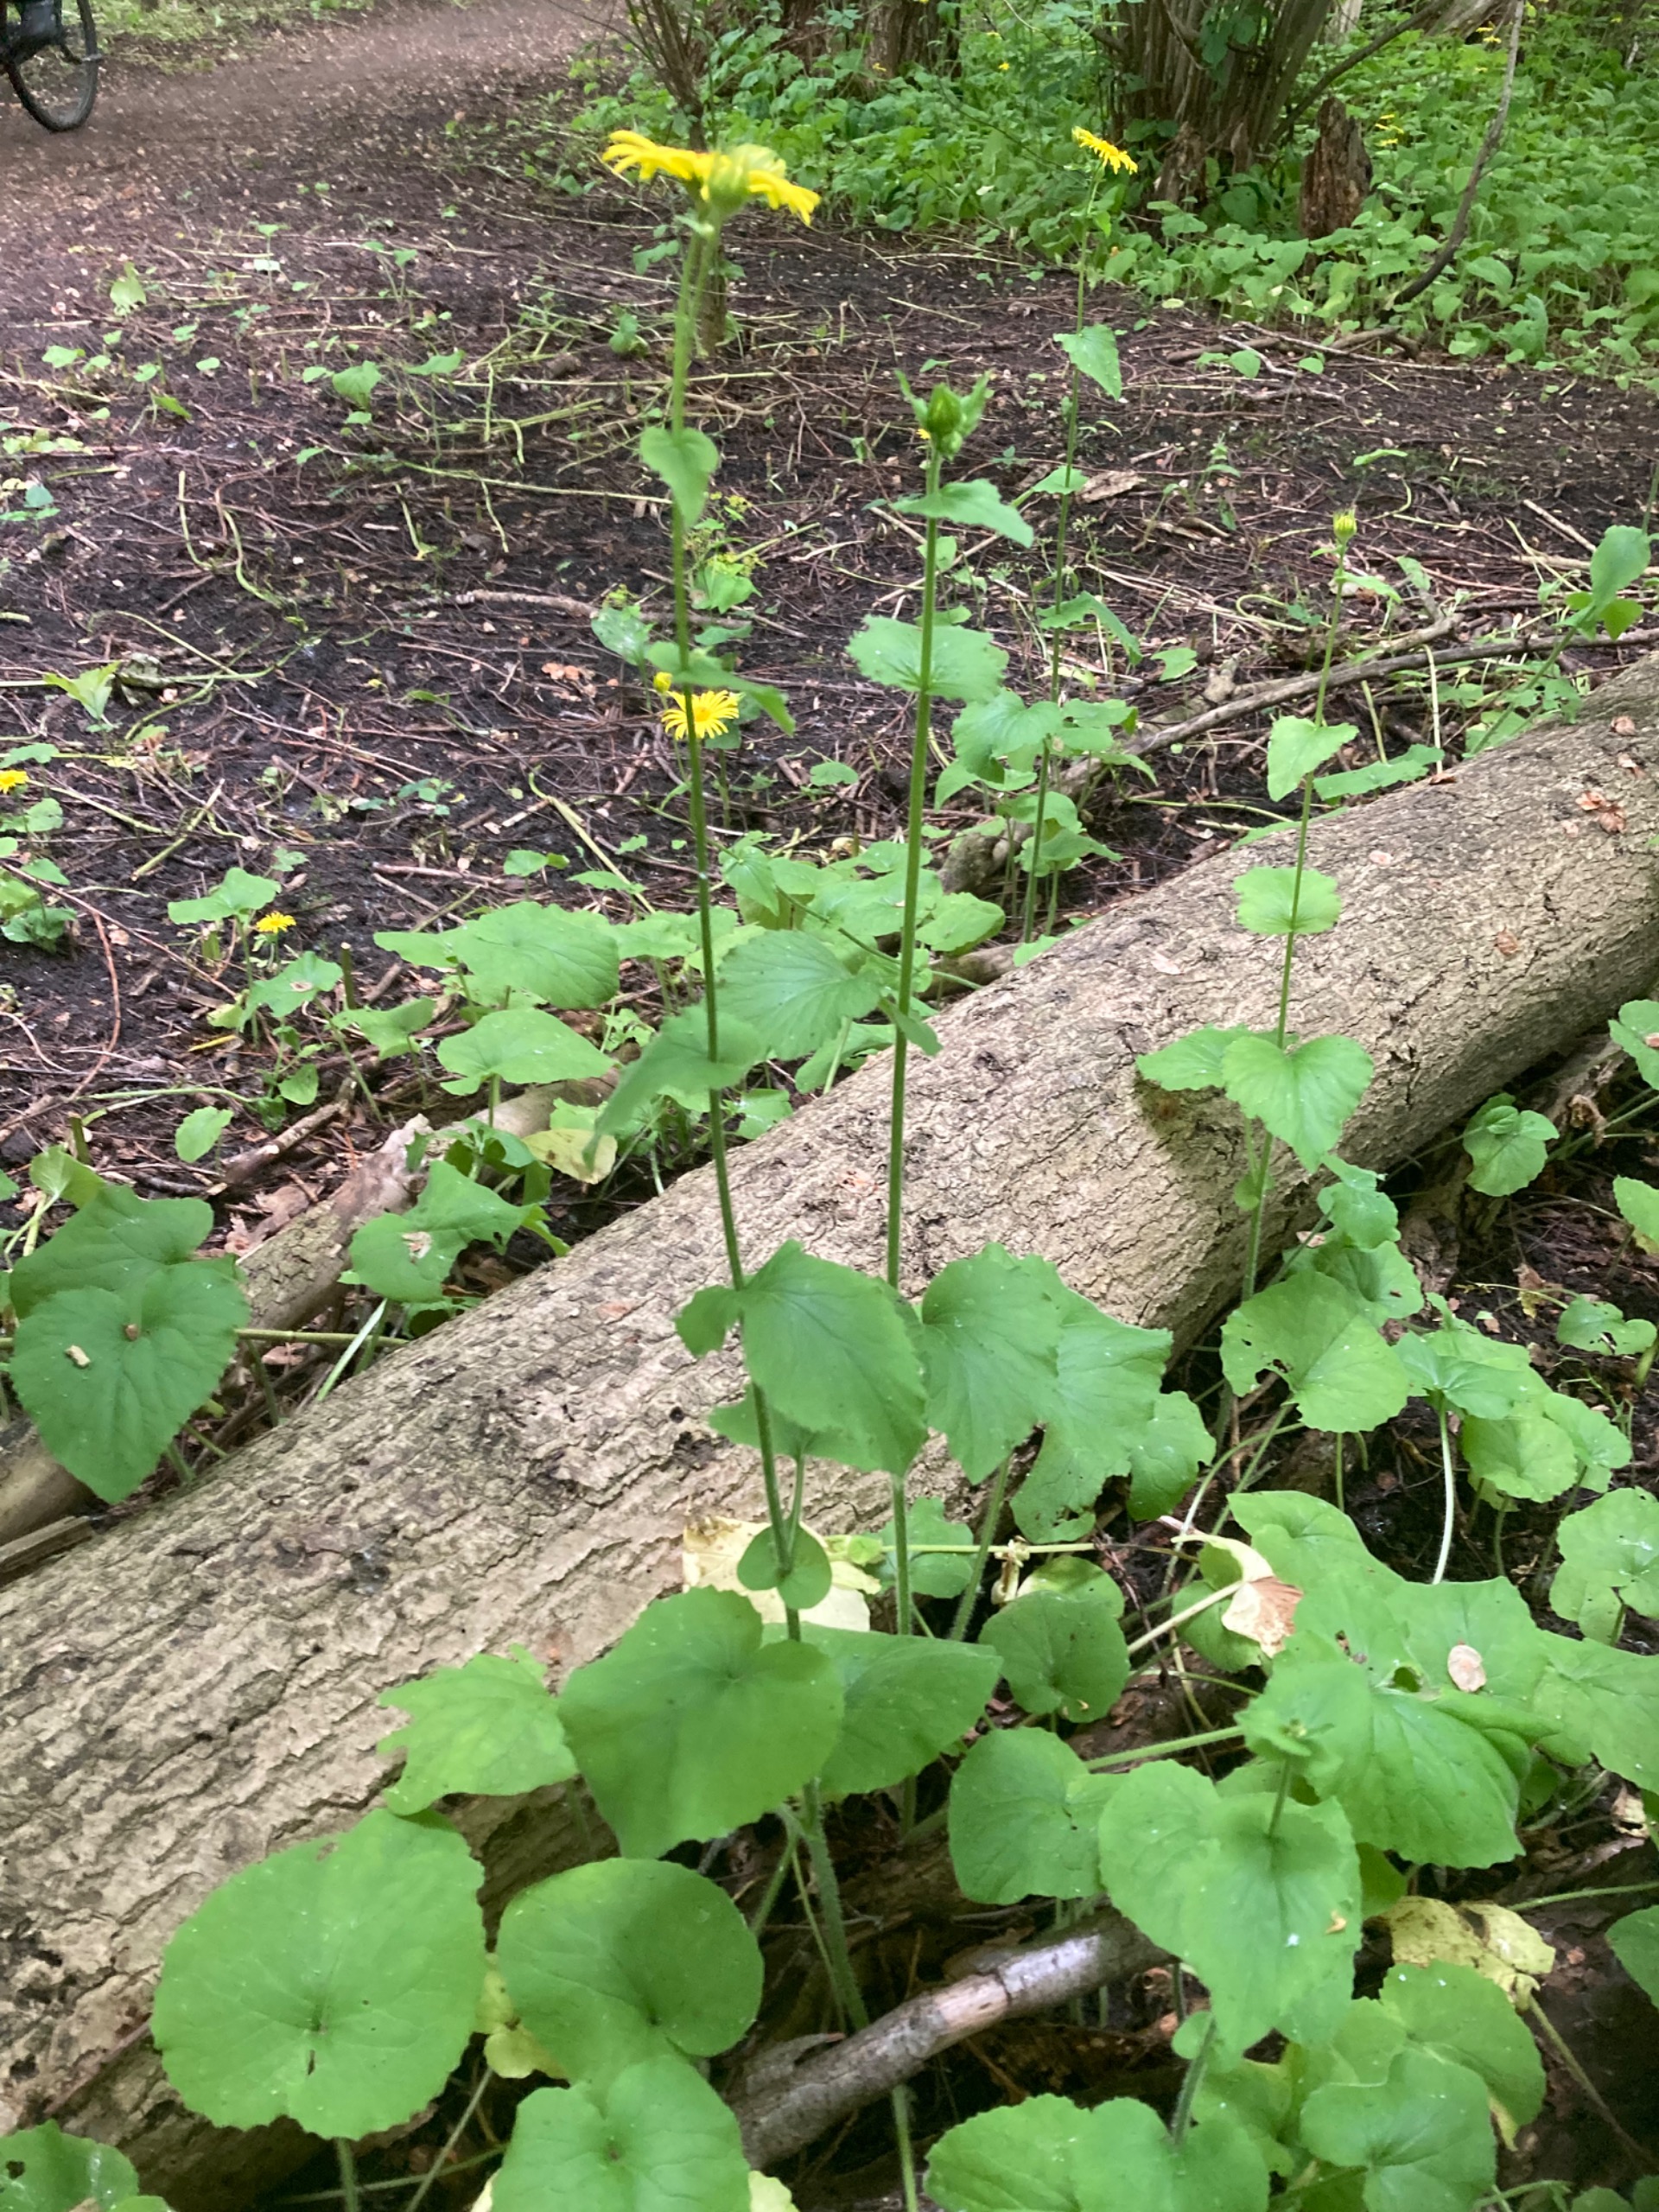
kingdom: Plantae
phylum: Tracheophyta
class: Magnoliopsida
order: Asterales
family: Asteraceae
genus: Doronicum
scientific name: Doronicum pardalianches
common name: Hjertebladet gemserod
